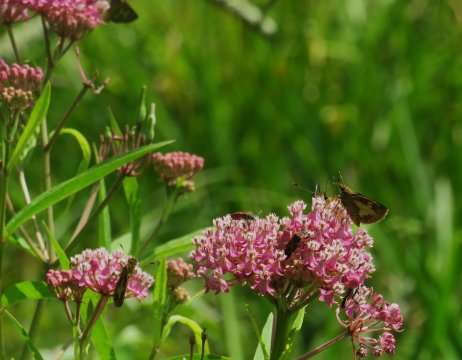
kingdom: Animalia
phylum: Arthropoda
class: Insecta
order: Lepidoptera
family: Hesperiidae
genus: Poanes
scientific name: Poanes massasoit
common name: Mulberry Wing
